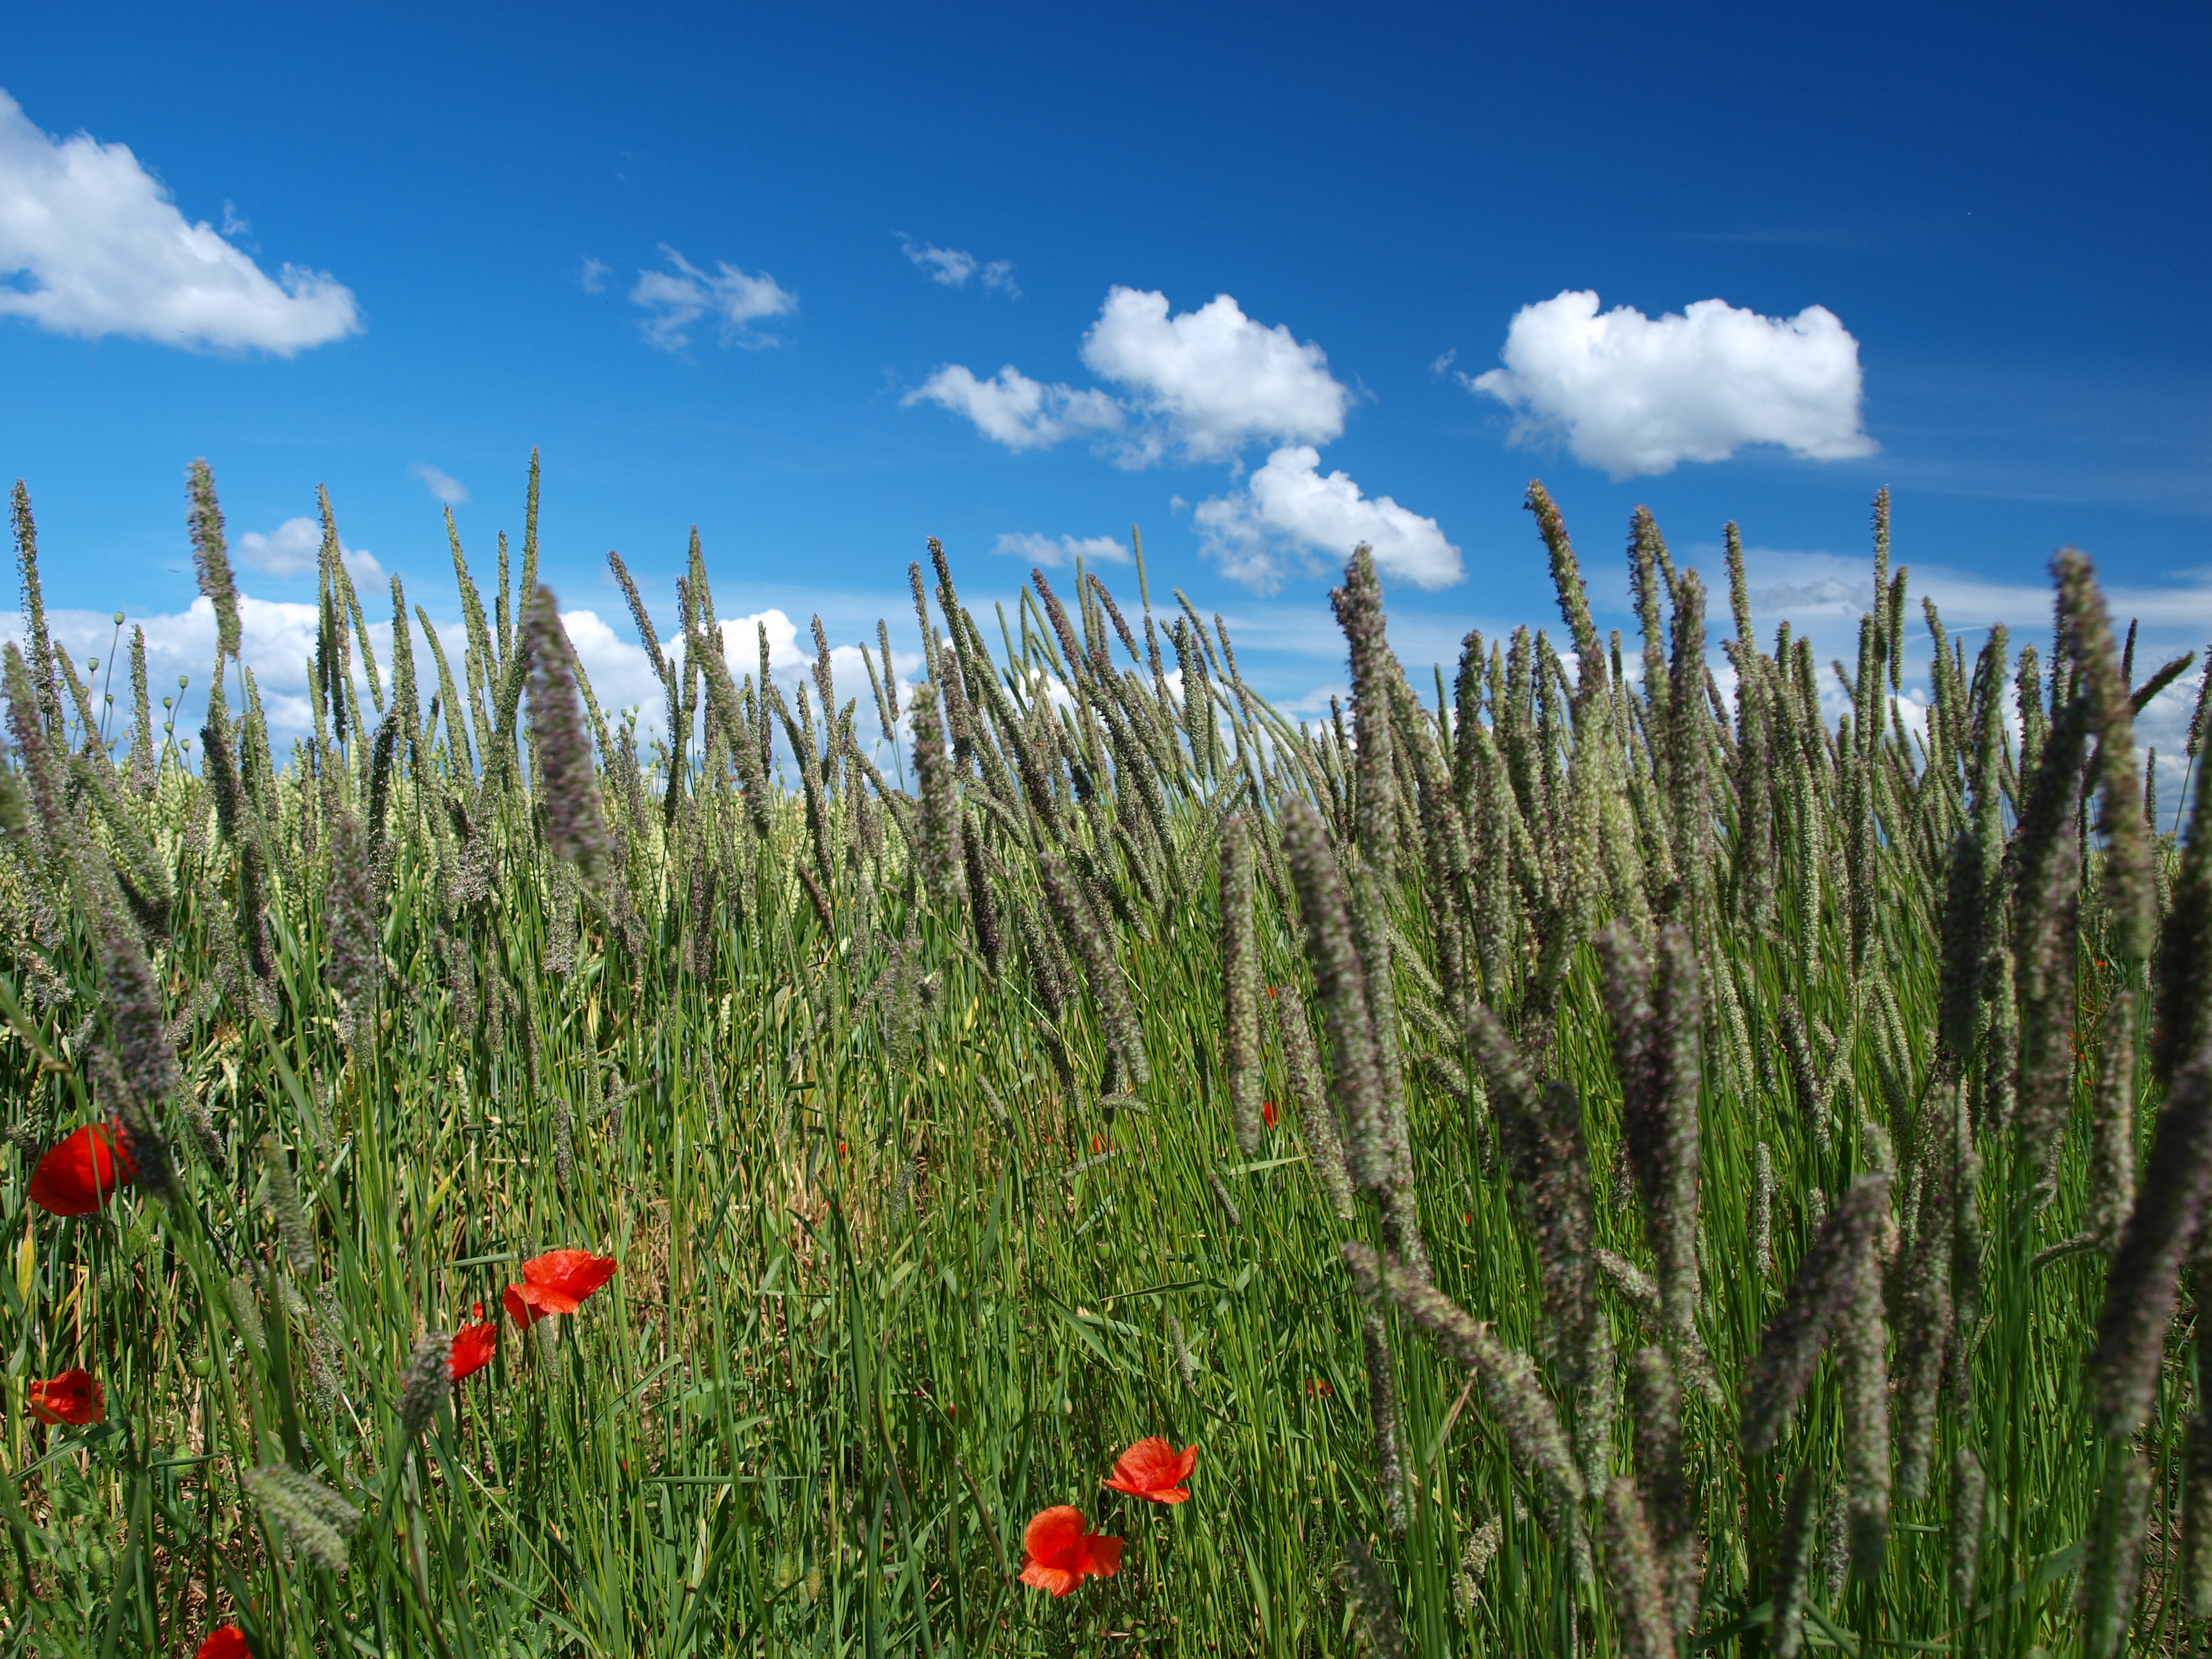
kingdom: Plantae
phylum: Tracheophyta
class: Liliopsida
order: Poales
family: Poaceae
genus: Phleum
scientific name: Phleum pratense
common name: Timothy grass
